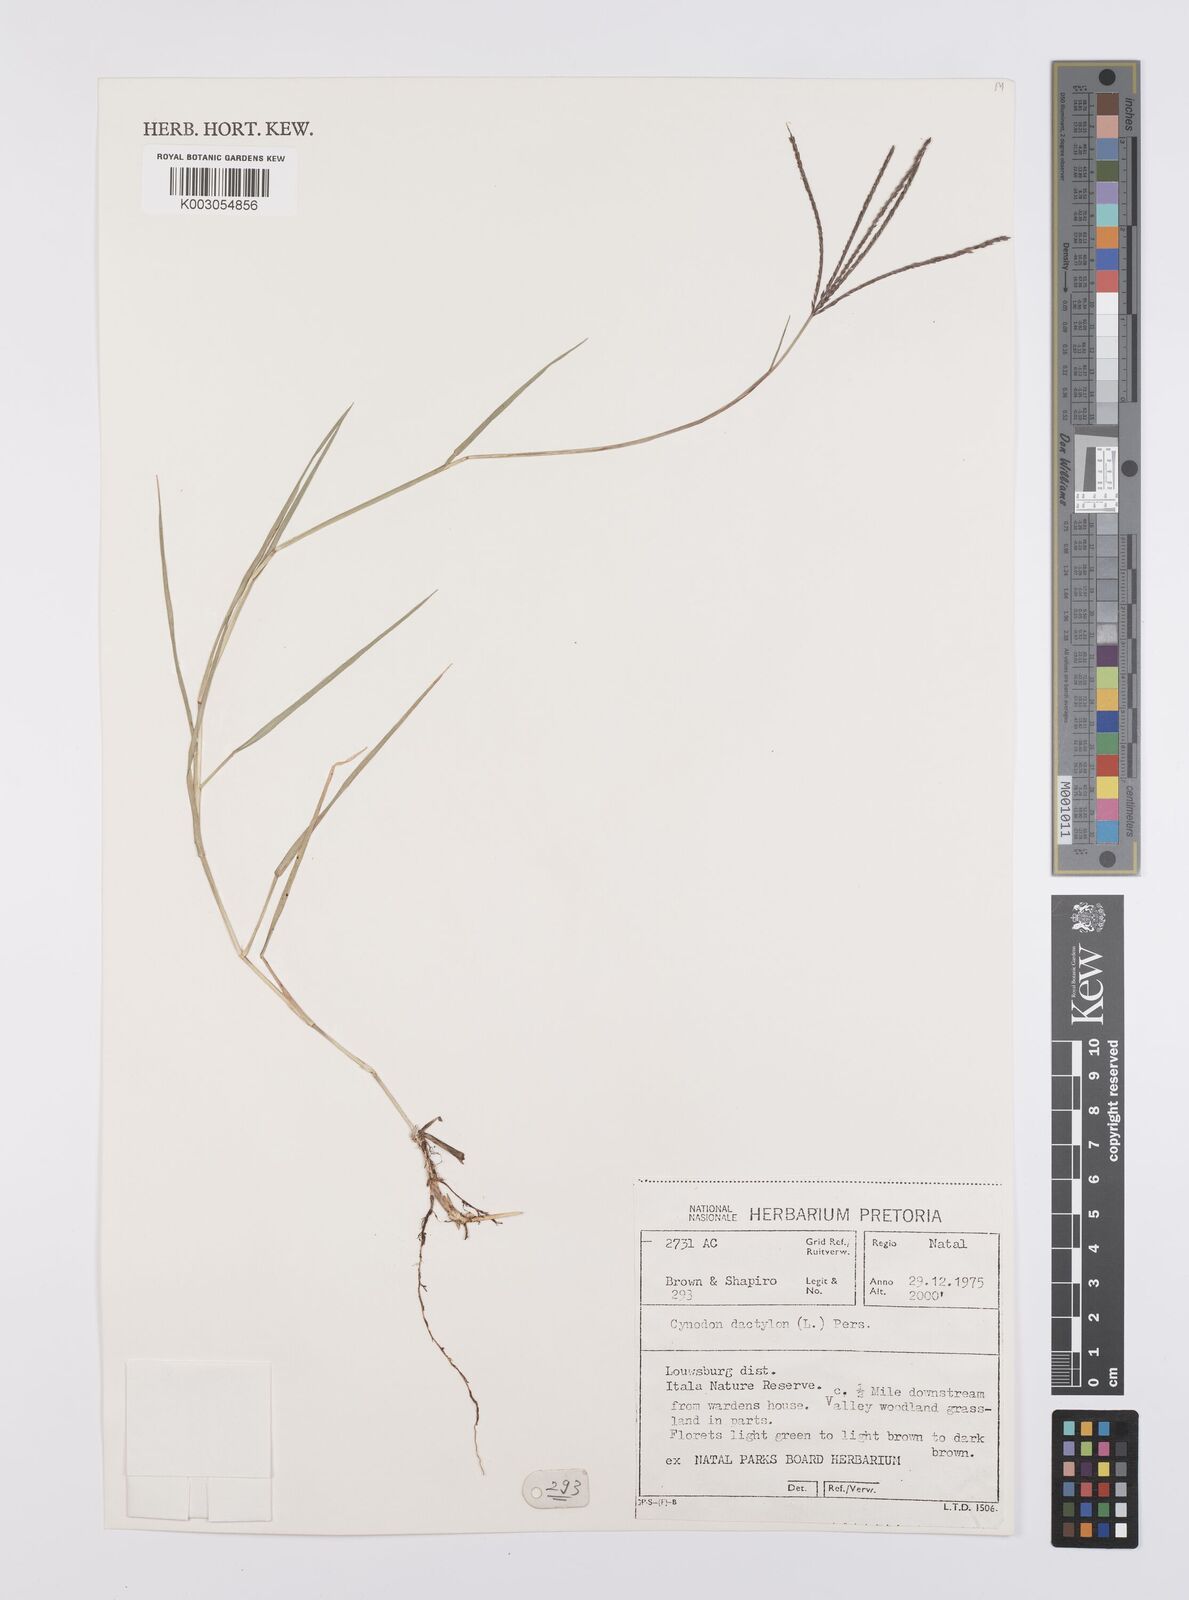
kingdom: Plantae
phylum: Tracheophyta
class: Liliopsida
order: Poales
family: Poaceae
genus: Cynodon
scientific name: Cynodon dactylon
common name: Bermuda grass
